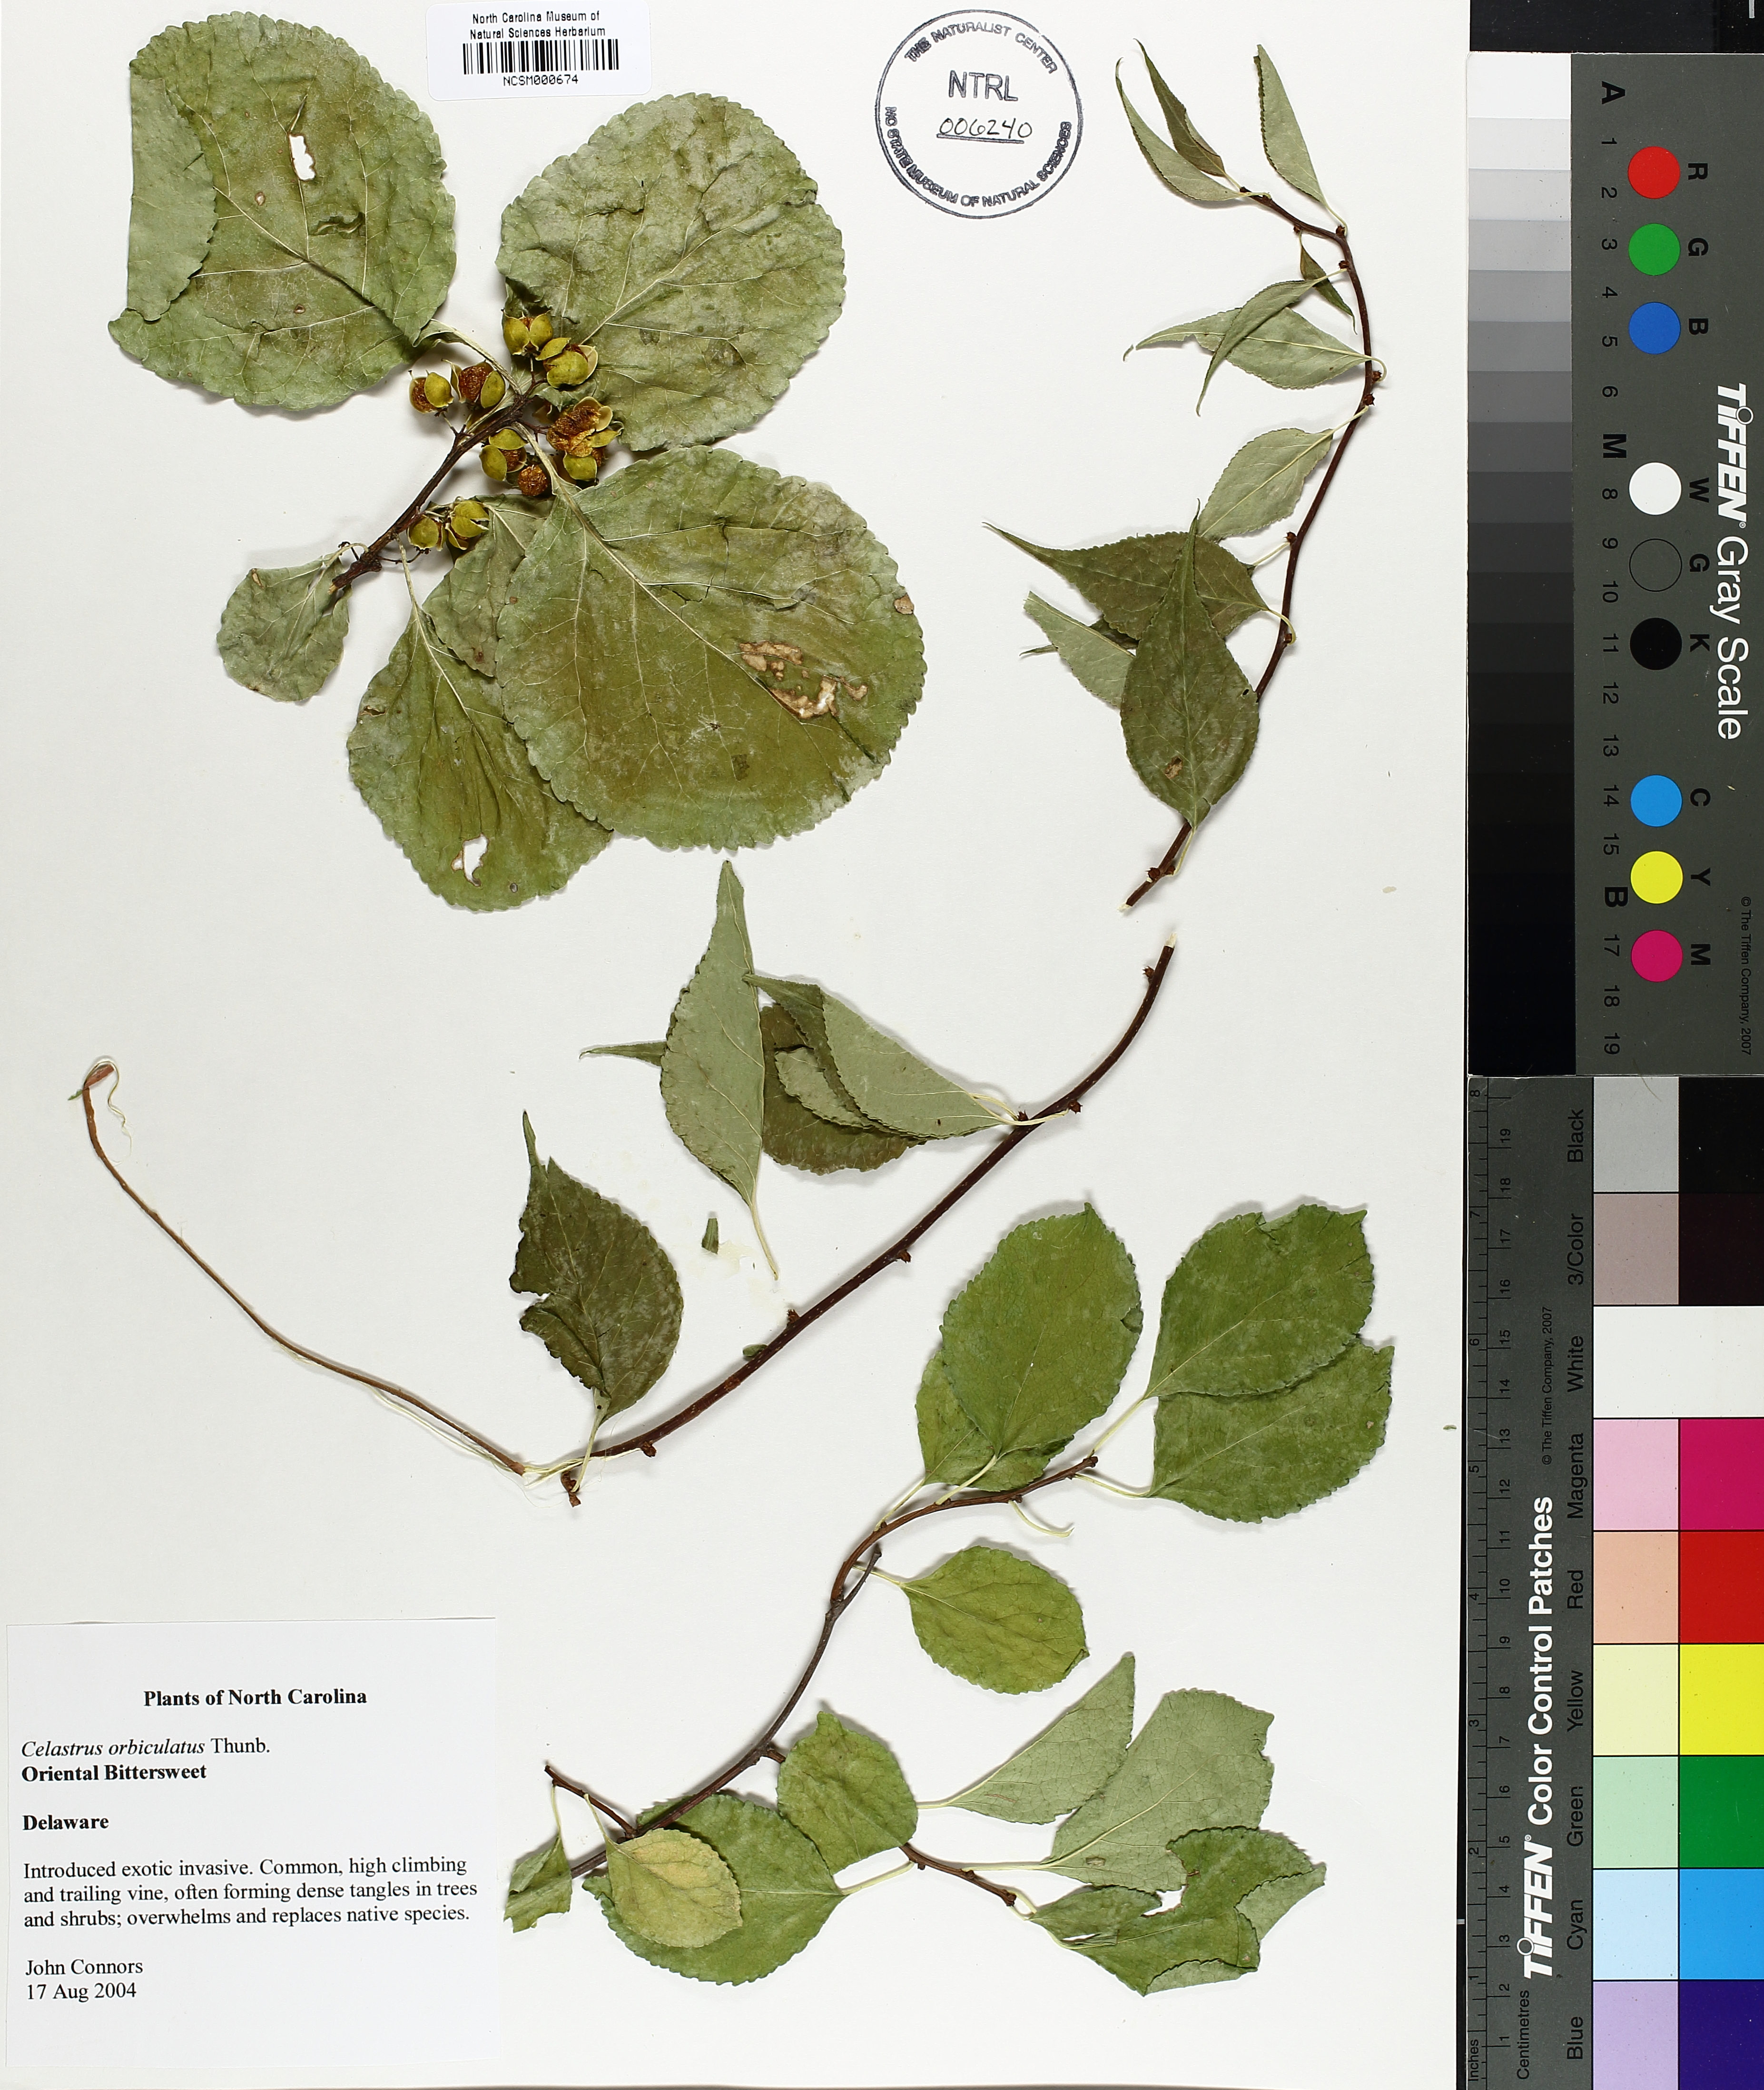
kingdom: Plantae
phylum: Tracheophyta
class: Magnoliopsida
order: Celastrales
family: Celastraceae
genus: Celastrus
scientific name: Celastrus orbiculatus
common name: Oriental bittersweet
